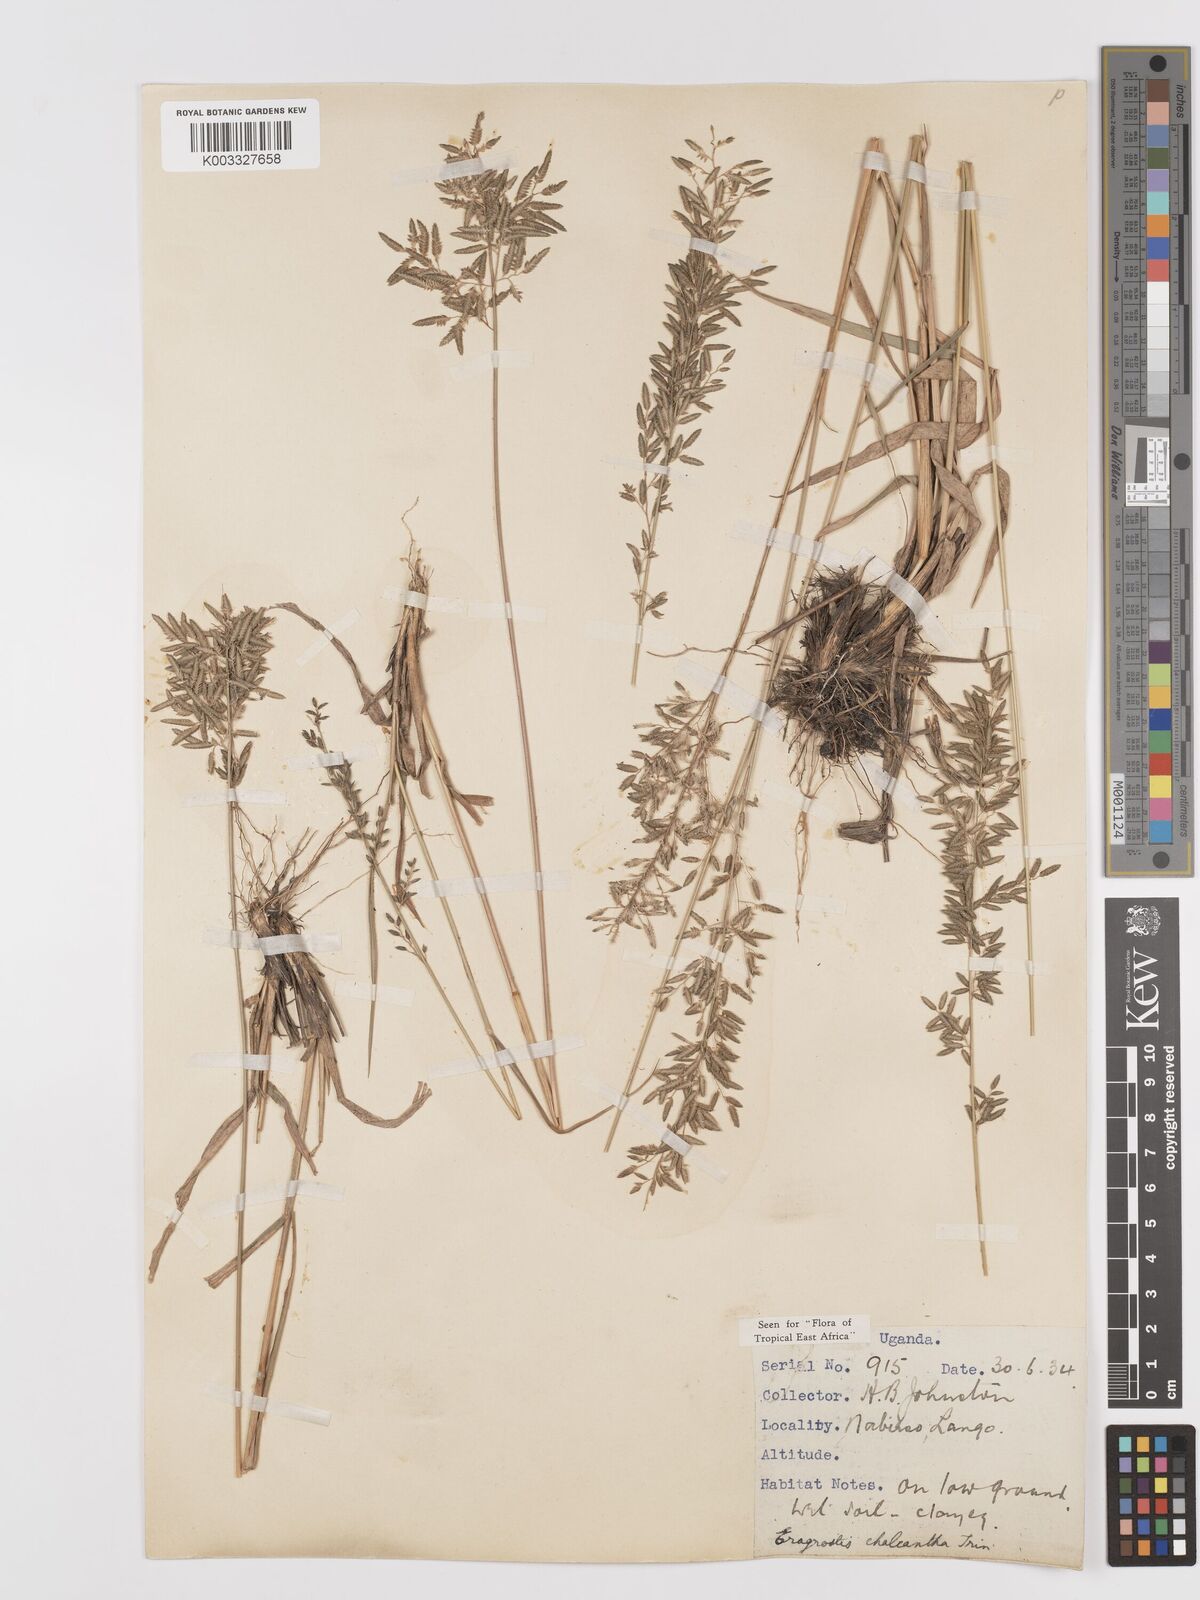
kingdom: Plantae
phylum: Tracheophyta
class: Liliopsida
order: Poales
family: Poaceae
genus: Eragrostis
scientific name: Eragrostis racemosa
